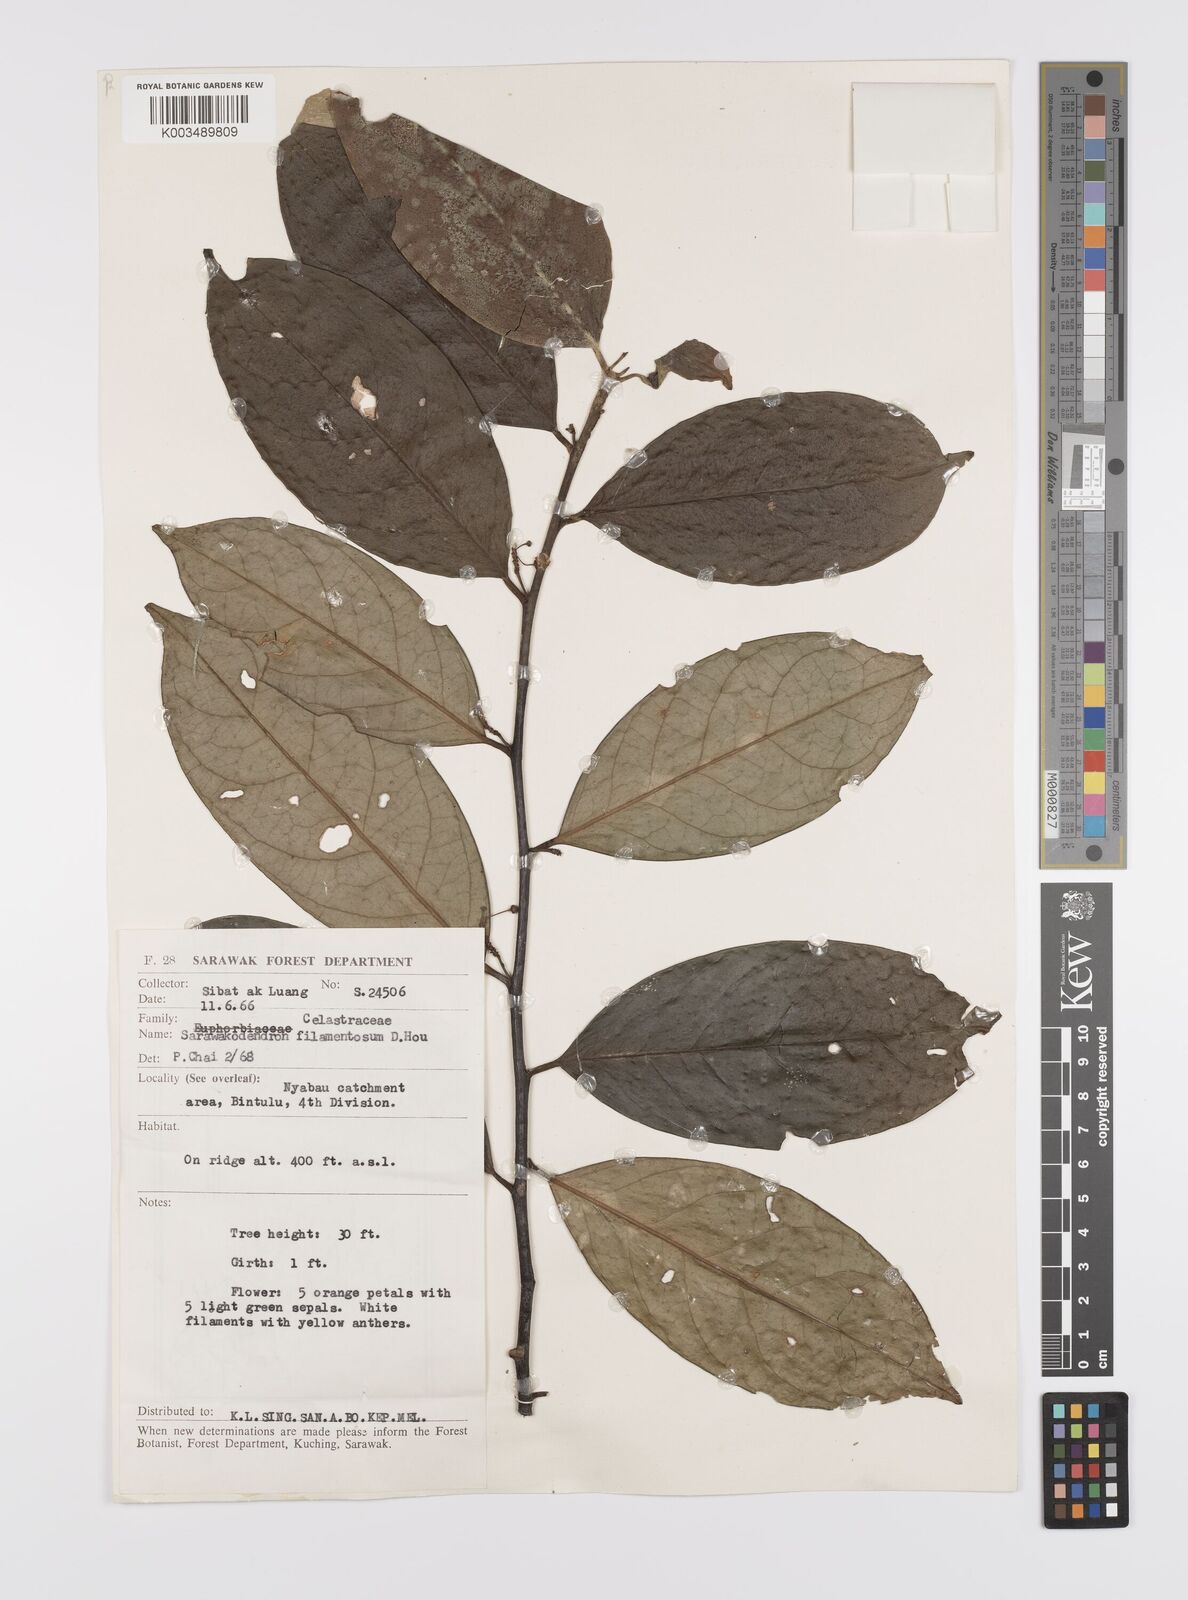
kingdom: Plantae
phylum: Tracheophyta
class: Magnoliopsida
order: Celastrales
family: Celastraceae
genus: Sarawakodendron
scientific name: Sarawakodendron filamentosum
